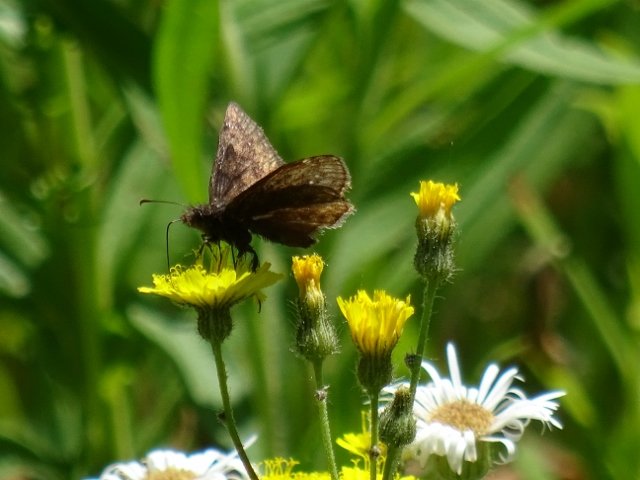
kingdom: Animalia
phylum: Arthropoda
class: Insecta
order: Lepidoptera
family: Hesperiidae
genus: Gesta
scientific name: Gesta
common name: Wild Indigo Duskywing
